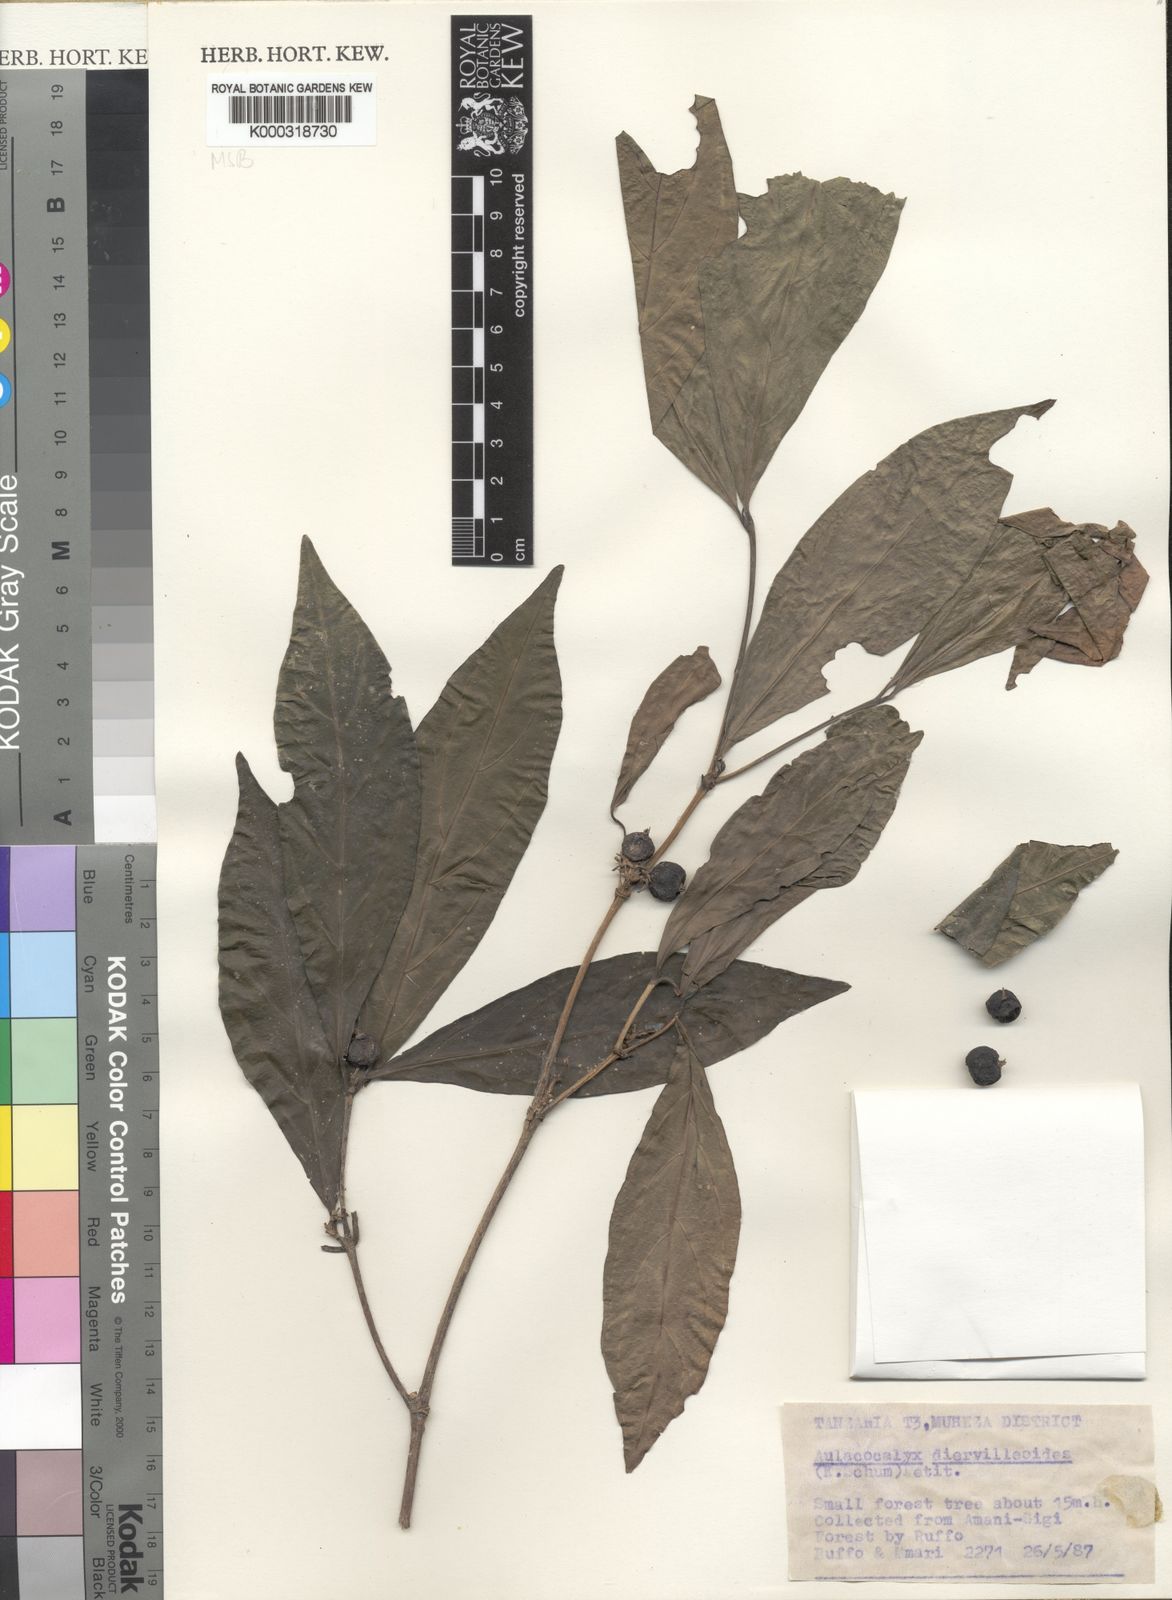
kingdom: Plantae
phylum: Tracheophyta
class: Magnoliopsida
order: Gentianales
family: Rubiaceae
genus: Heinsenia
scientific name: Heinsenia diervilleoides
